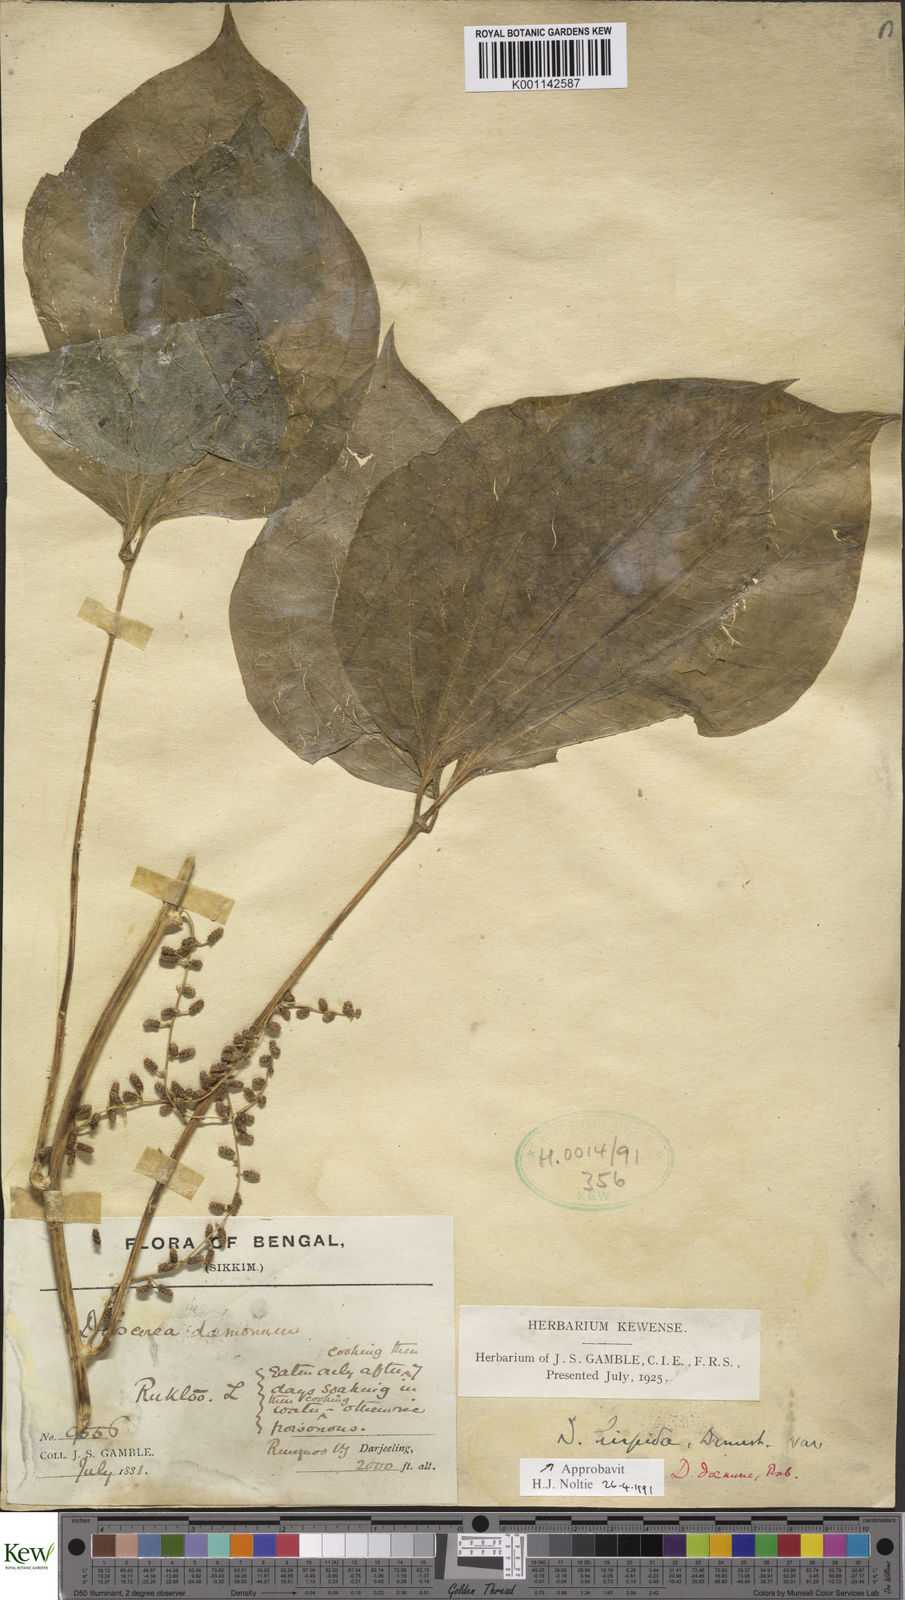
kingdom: Plantae
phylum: Tracheophyta
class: Liliopsida
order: Dioscoreales
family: Dioscoreaceae
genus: Dioscorea
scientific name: Dioscorea pentaphylla
